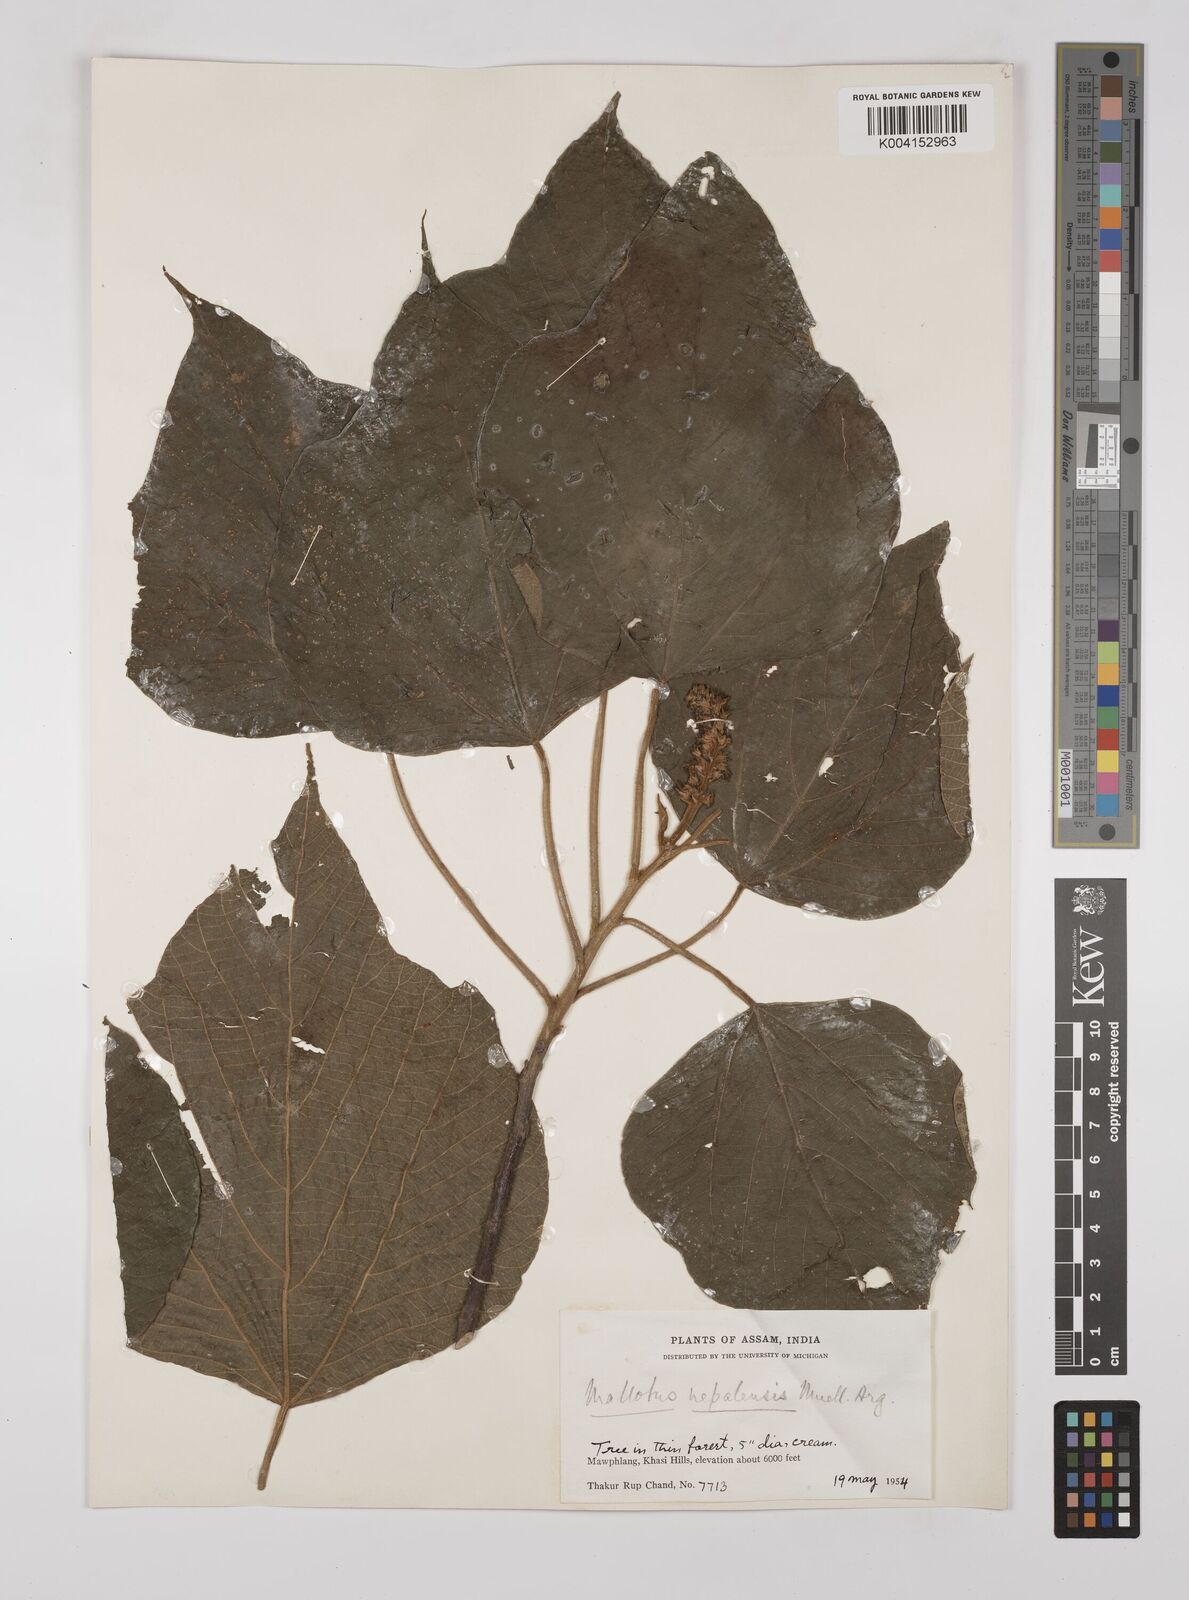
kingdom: Plantae
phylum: Tracheophyta
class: Magnoliopsida
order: Malpighiales
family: Euphorbiaceae
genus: Mallotus
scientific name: Mallotus nepalensis
